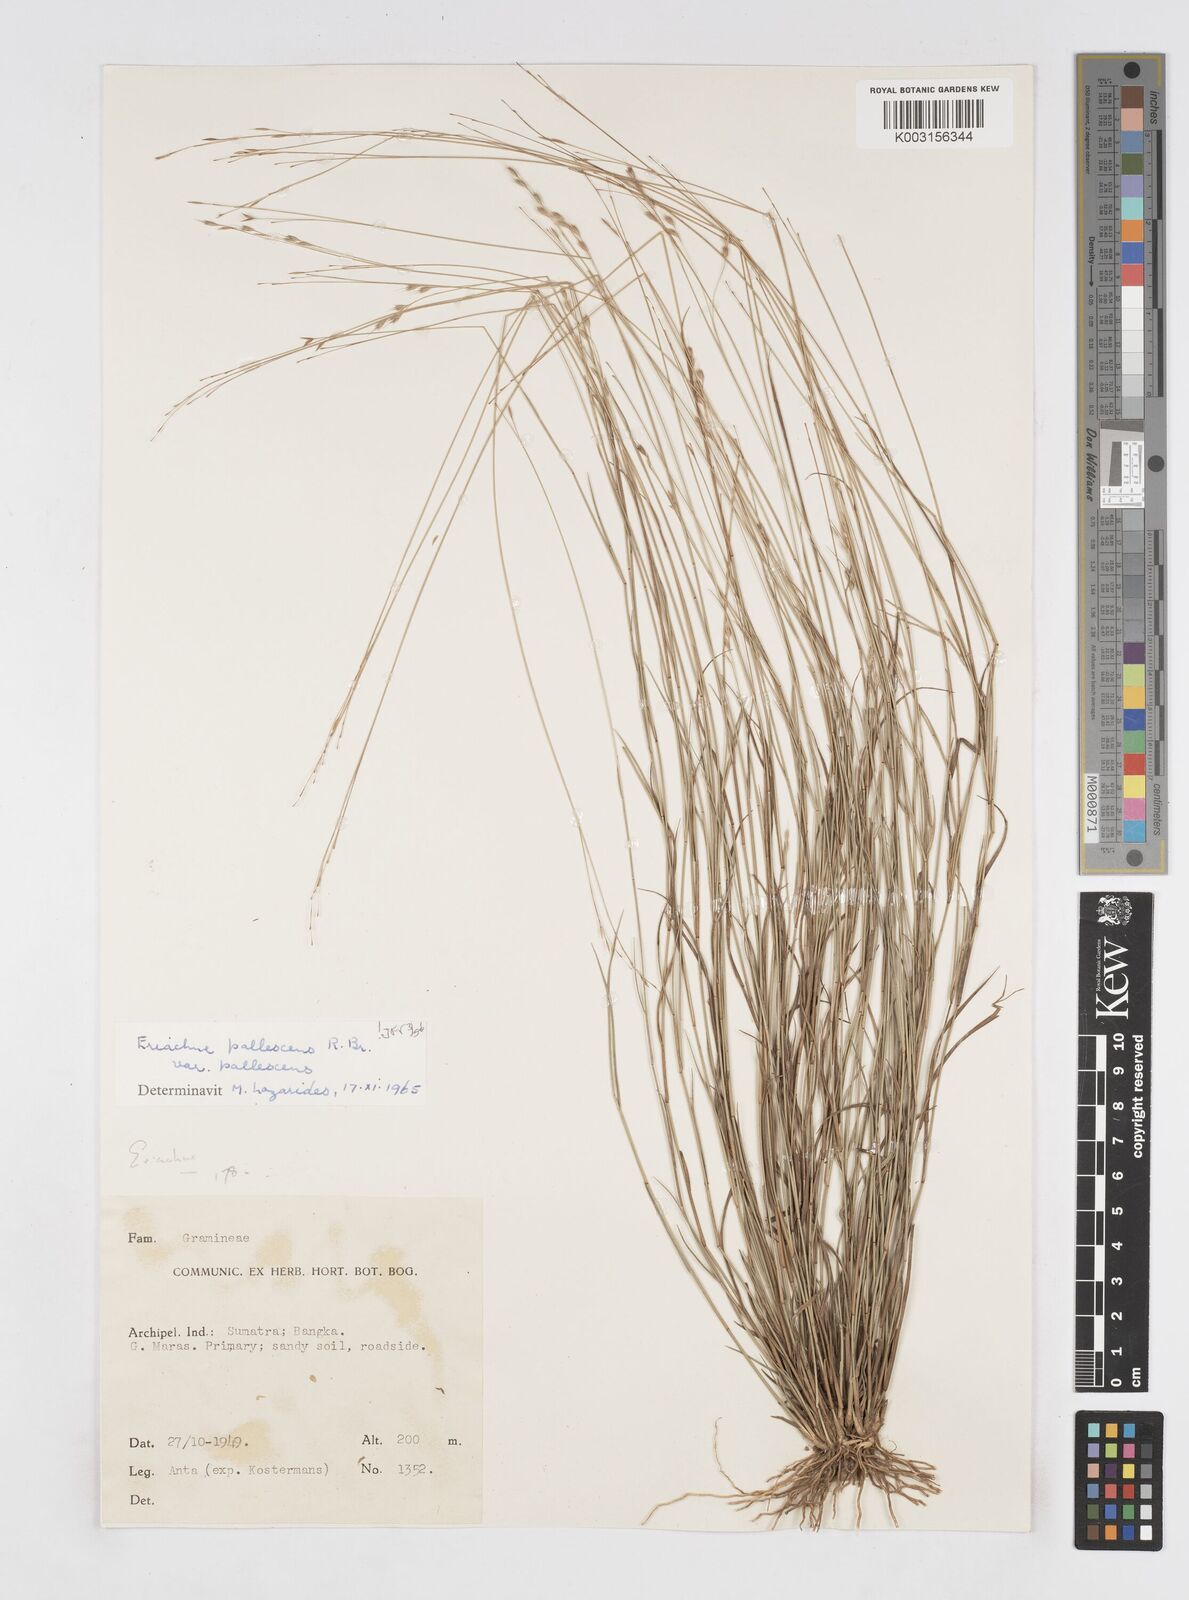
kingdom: Plantae
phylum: Tracheophyta
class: Liliopsida
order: Poales
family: Poaceae
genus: Eriachne
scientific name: Eriachne pallescens
